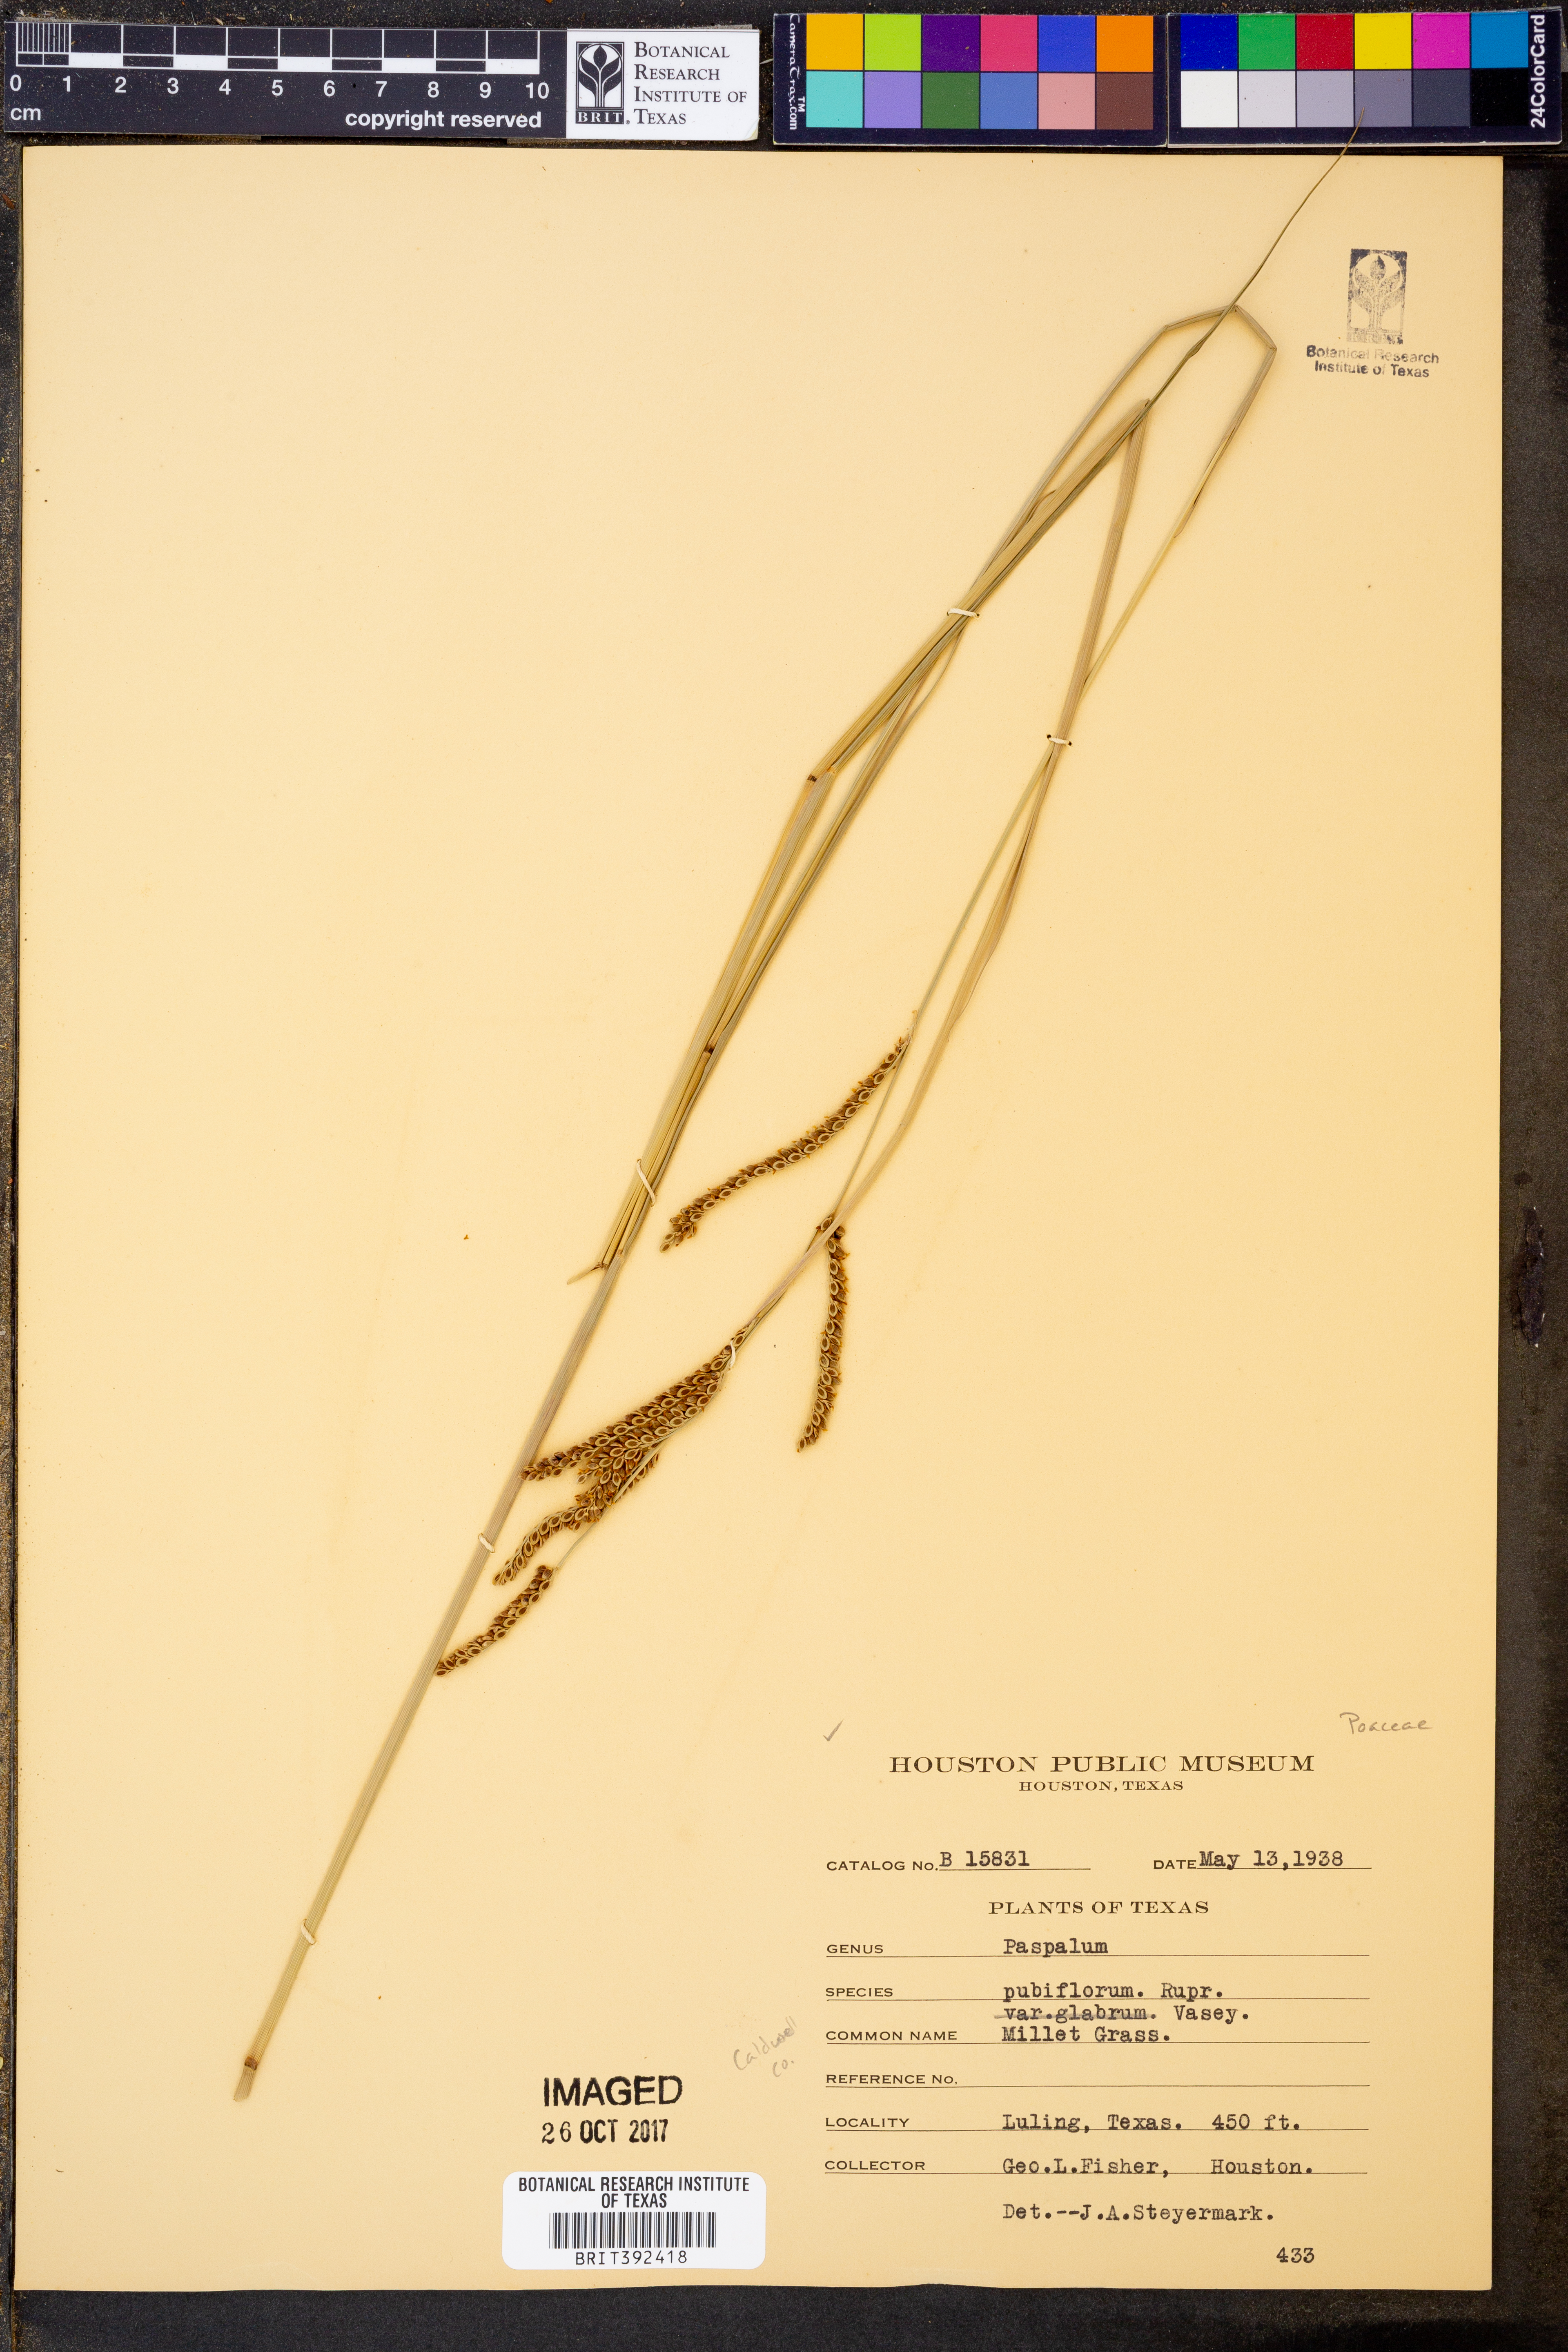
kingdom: Plantae
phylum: Tracheophyta
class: Liliopsida
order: Poales
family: Poaceae
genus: Paspalum
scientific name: Paspalum pubiflorum
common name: Hairy-seed paspalum
